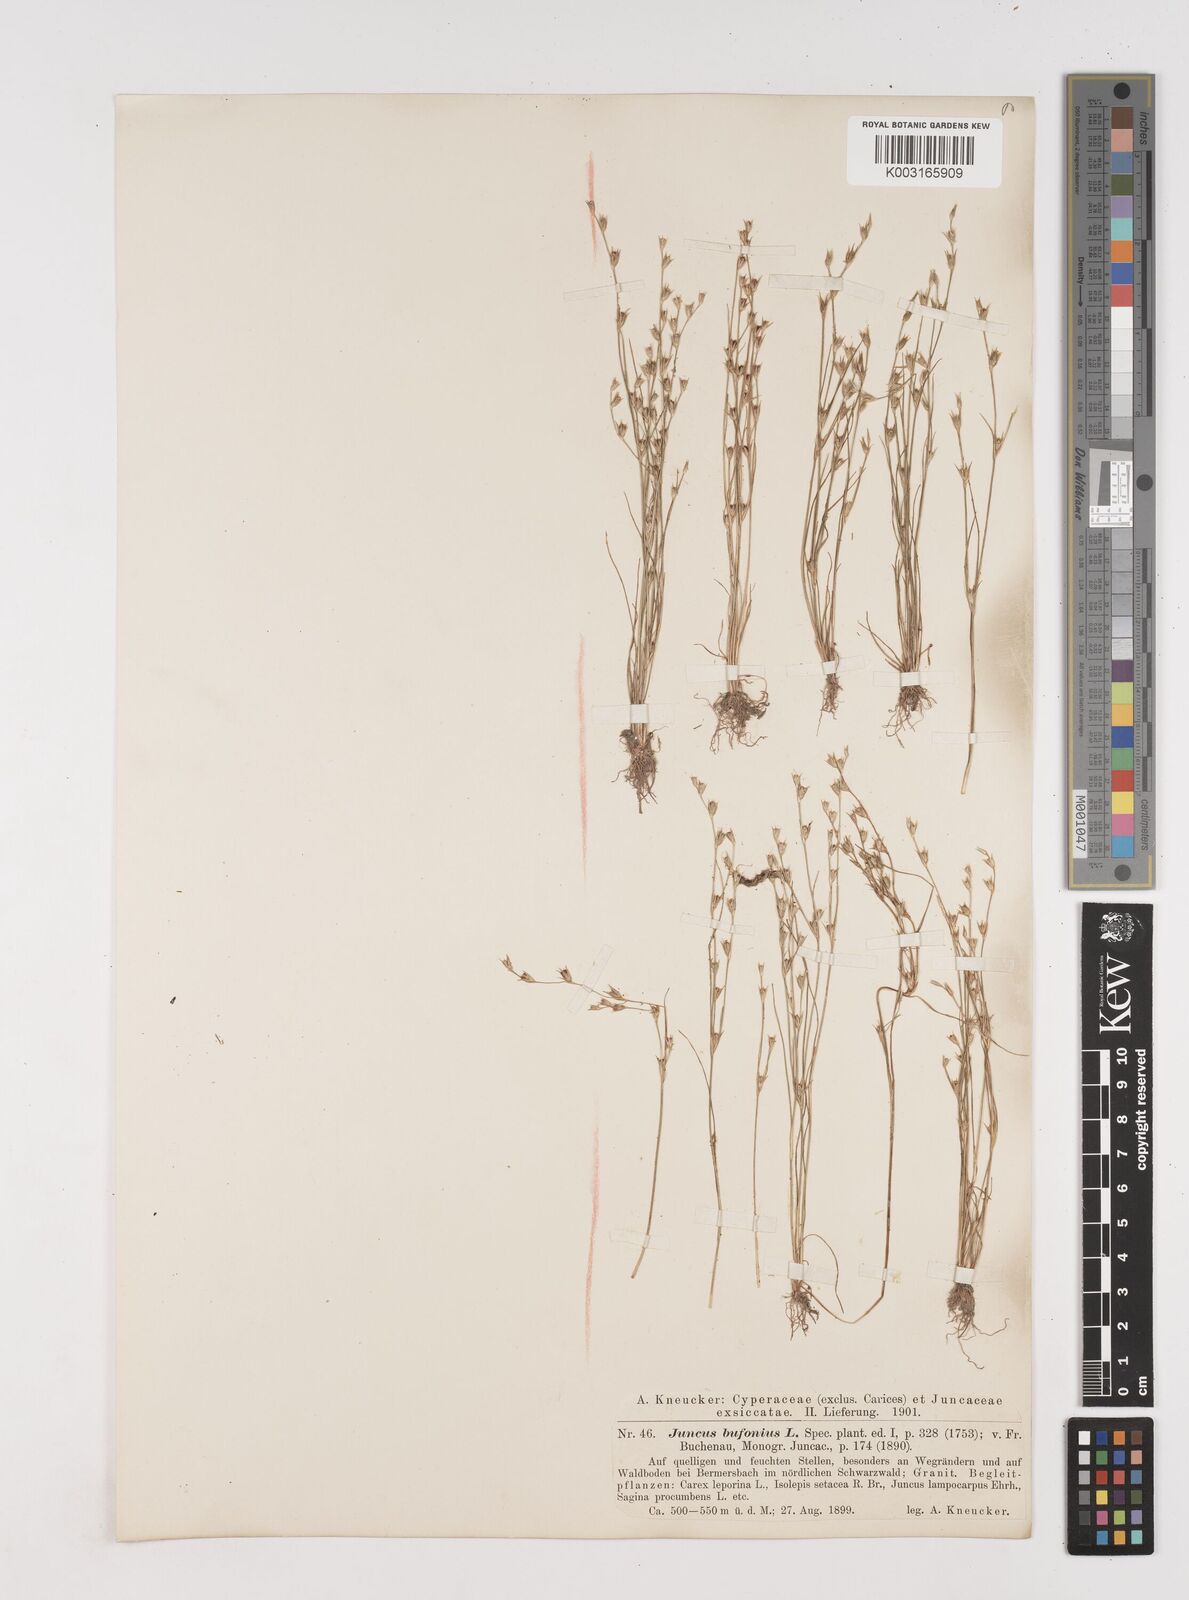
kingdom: Plantae
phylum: Tracheophyta
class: Liliopsida
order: Poales
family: Juncaceae
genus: Juncus
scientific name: Juncus bufonius
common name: Toad rush
